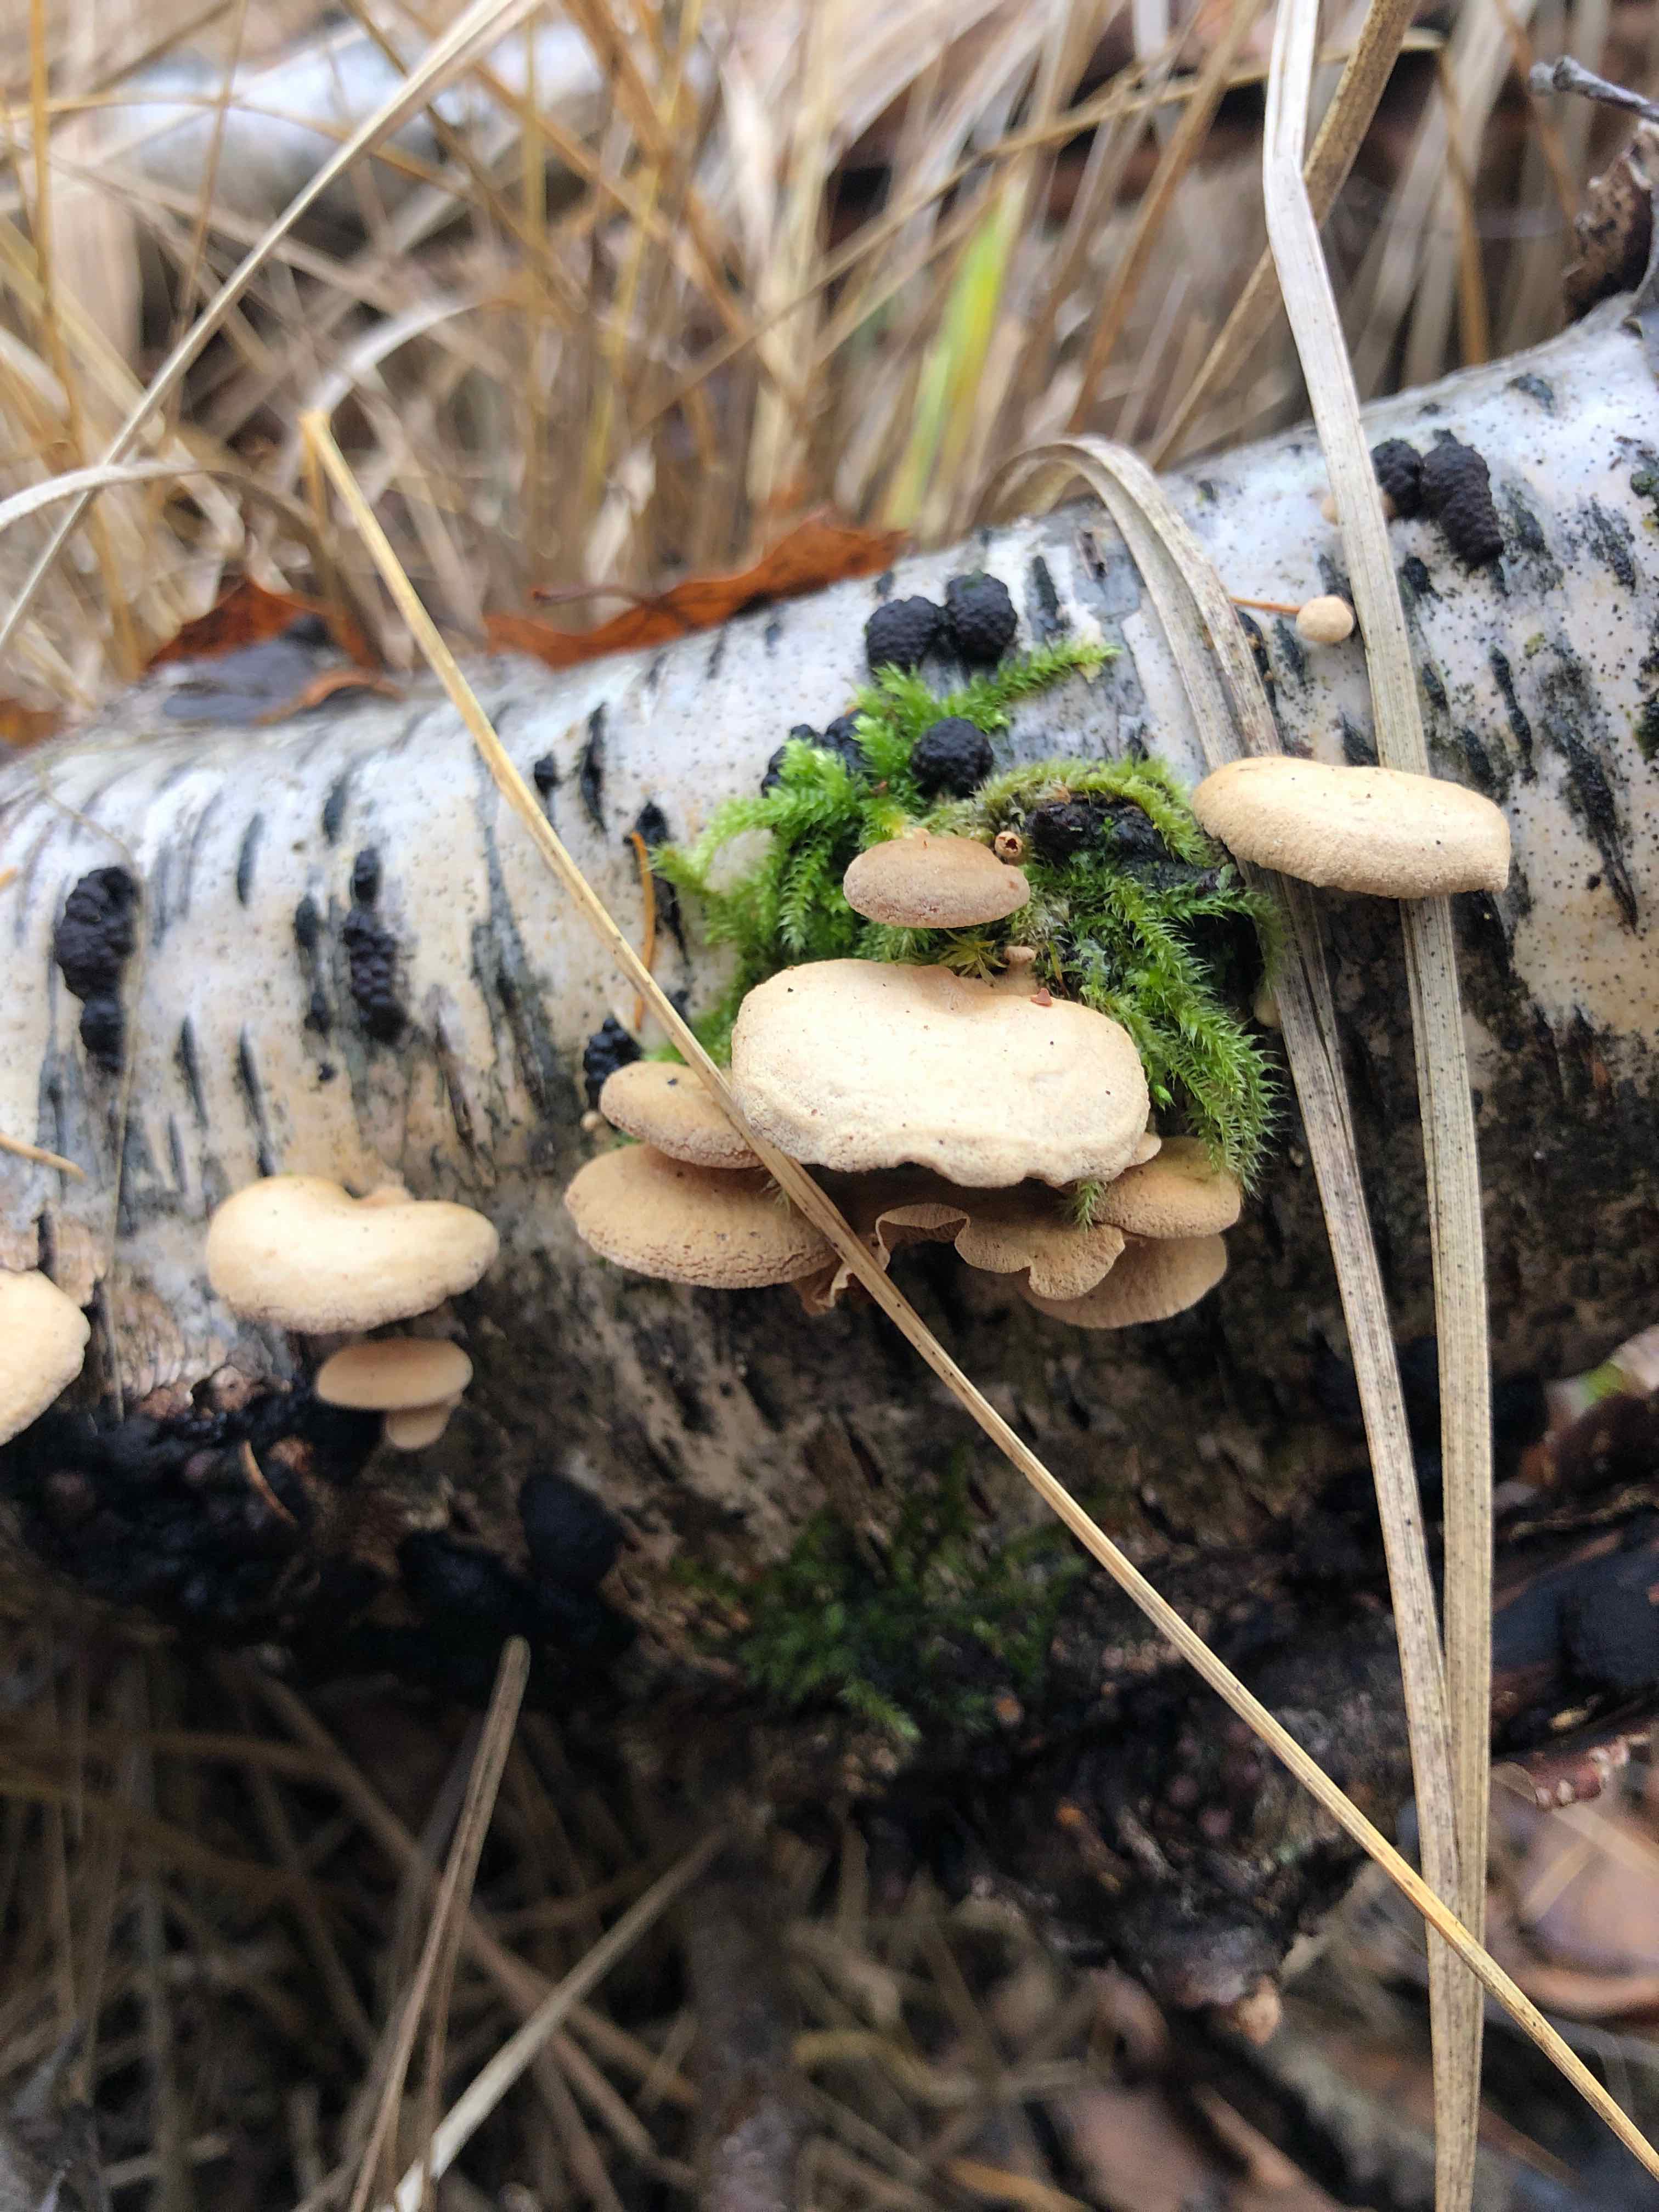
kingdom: Fungi
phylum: Basidiomycota
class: Agaricomycetes
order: Agaricales
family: Mycenaceae
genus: Panellus
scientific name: Panellus stipticus
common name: kliddet epaulethat
